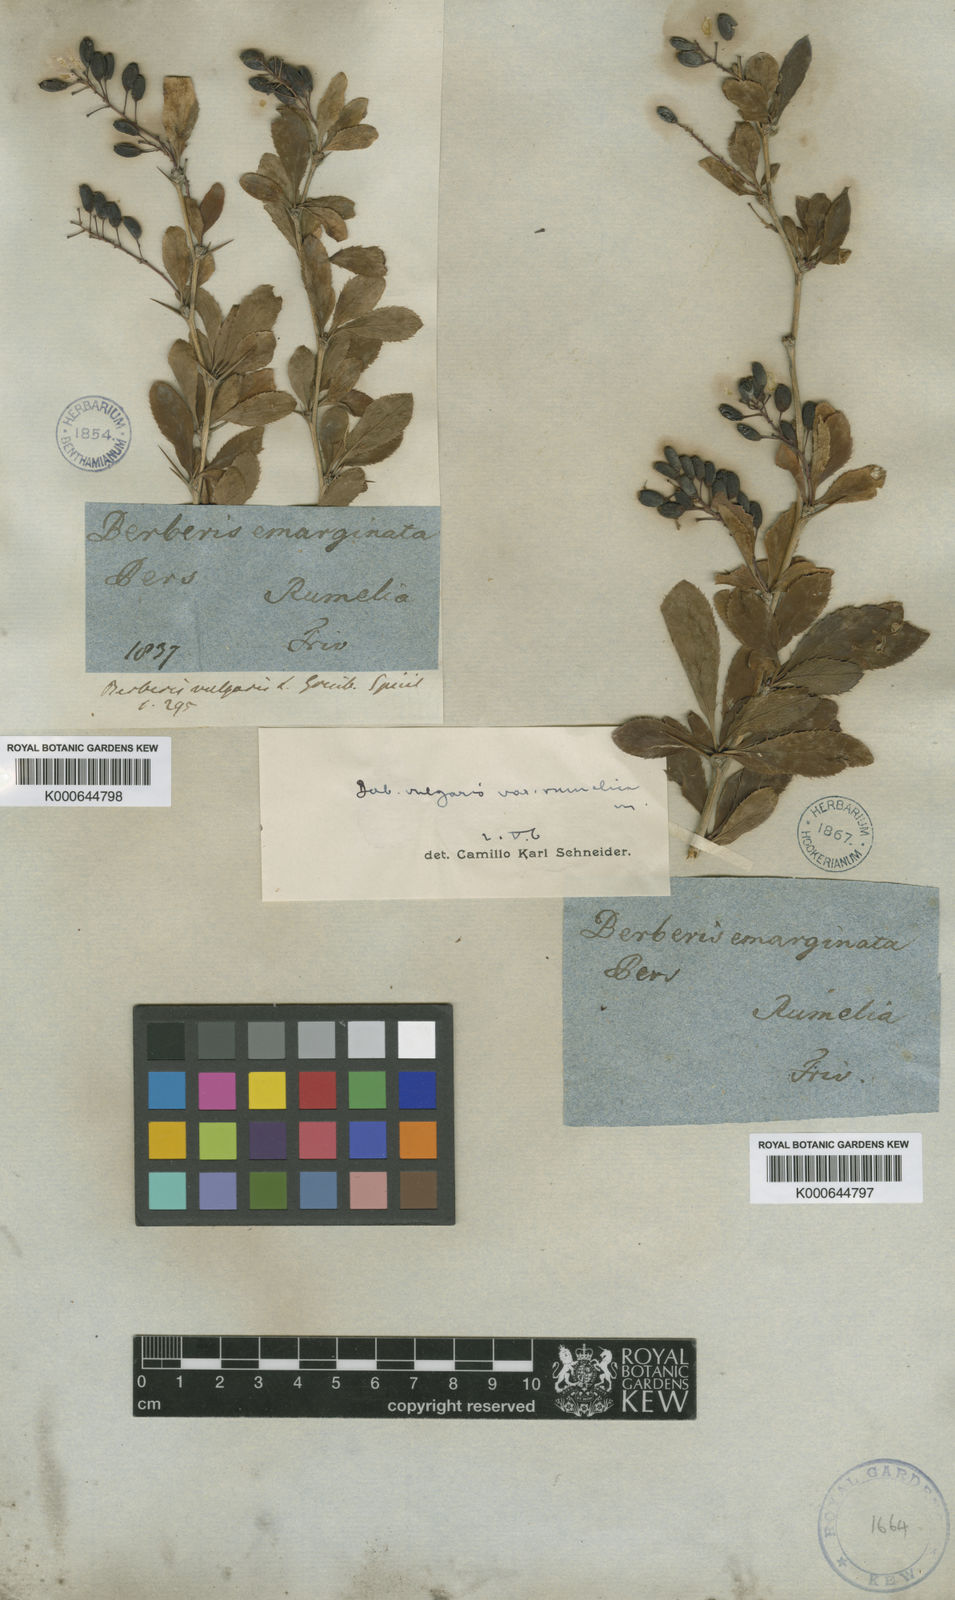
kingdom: Plantae
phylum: Tracheophyta
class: Magnoliopsida
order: Ranunculales
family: Berberidaceae
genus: Berberis
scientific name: Berberis vulgaris
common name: Barberry
